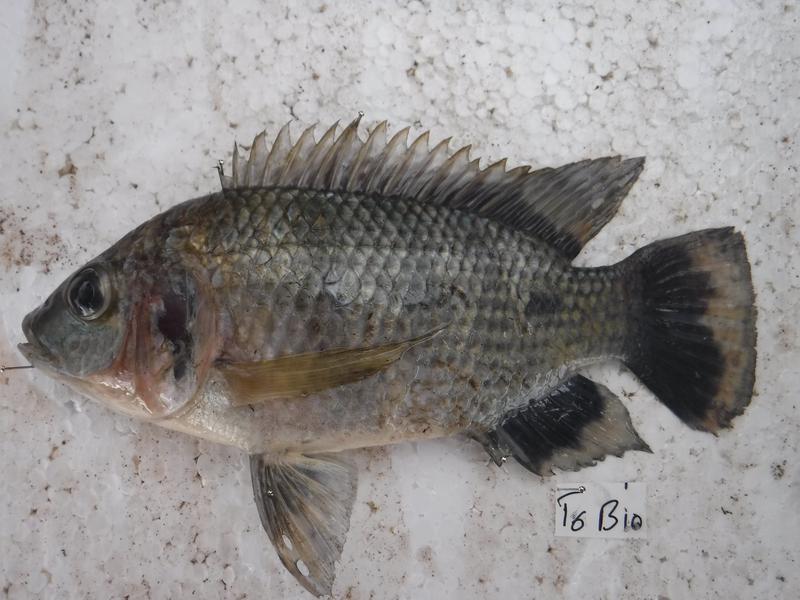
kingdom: Animalia
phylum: Chordata
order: Perciformes
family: Cichlidae
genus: Oreochromis
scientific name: Oreochromis urolepis
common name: Wami tilapia
